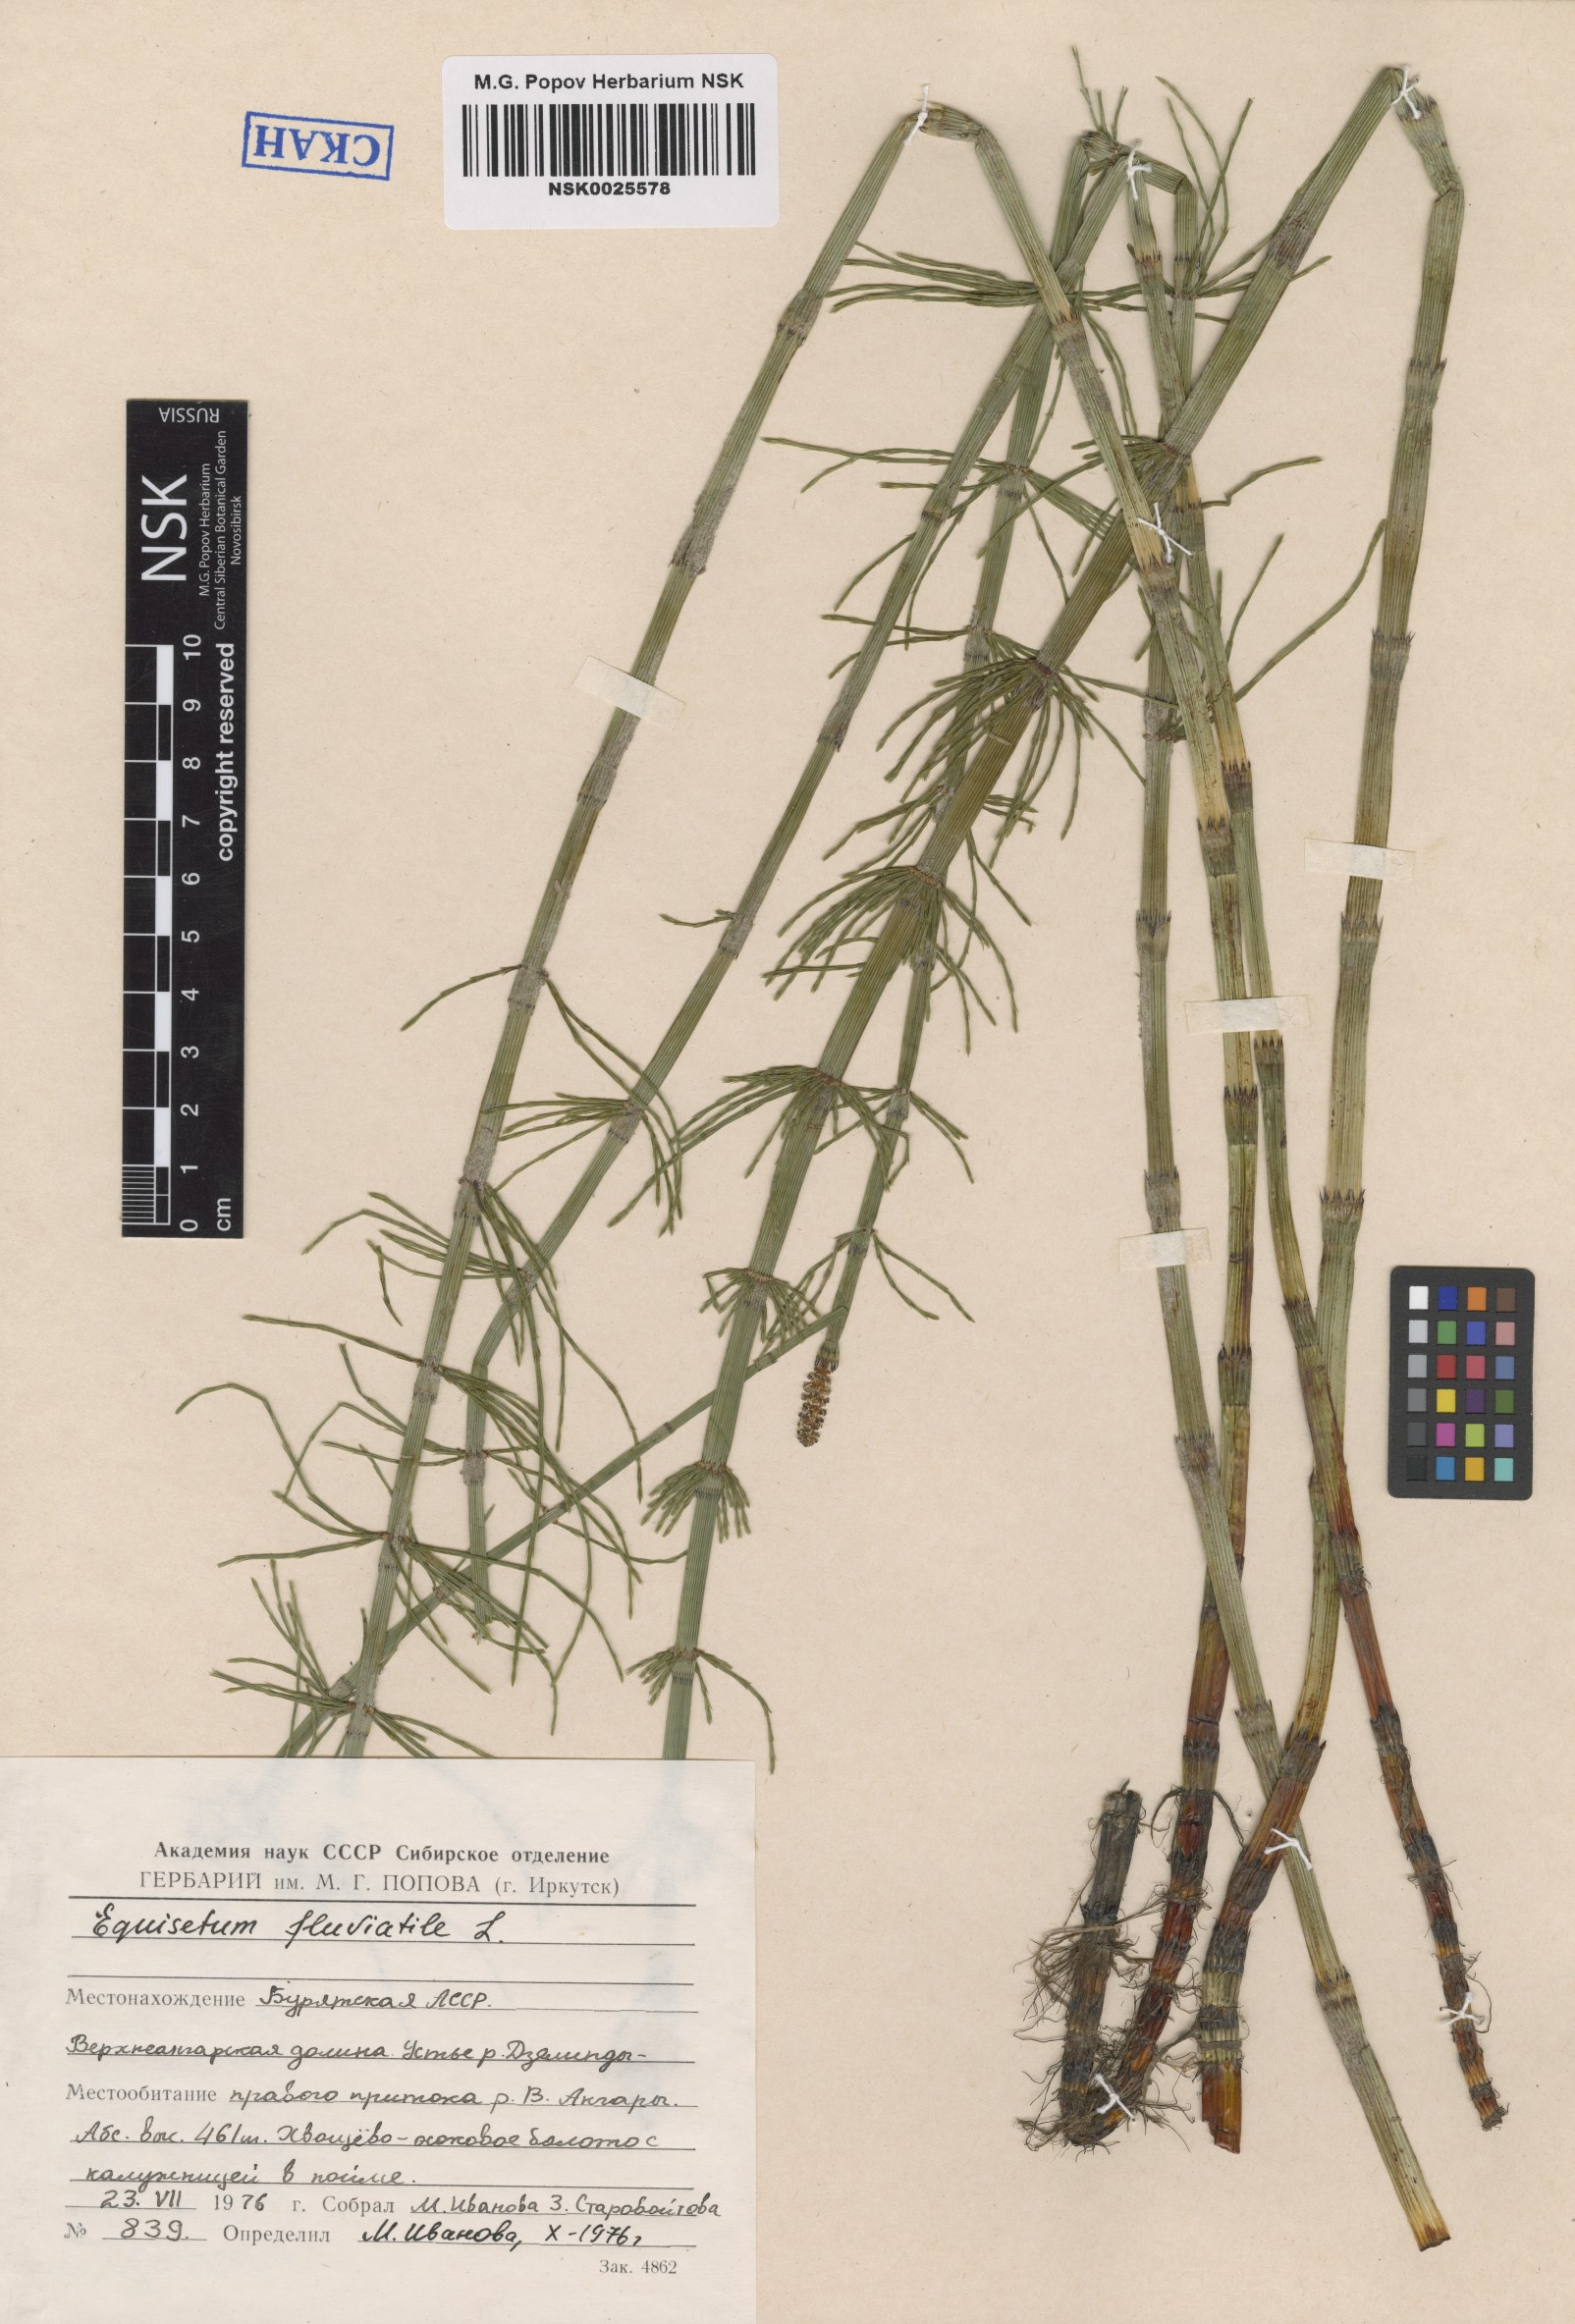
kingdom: Plantae
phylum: Tracheophyta
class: Polypodiopsida
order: Equisetales
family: Equisetaceae
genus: Equisetum
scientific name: Equisetum fluviatile
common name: Water horsetail
